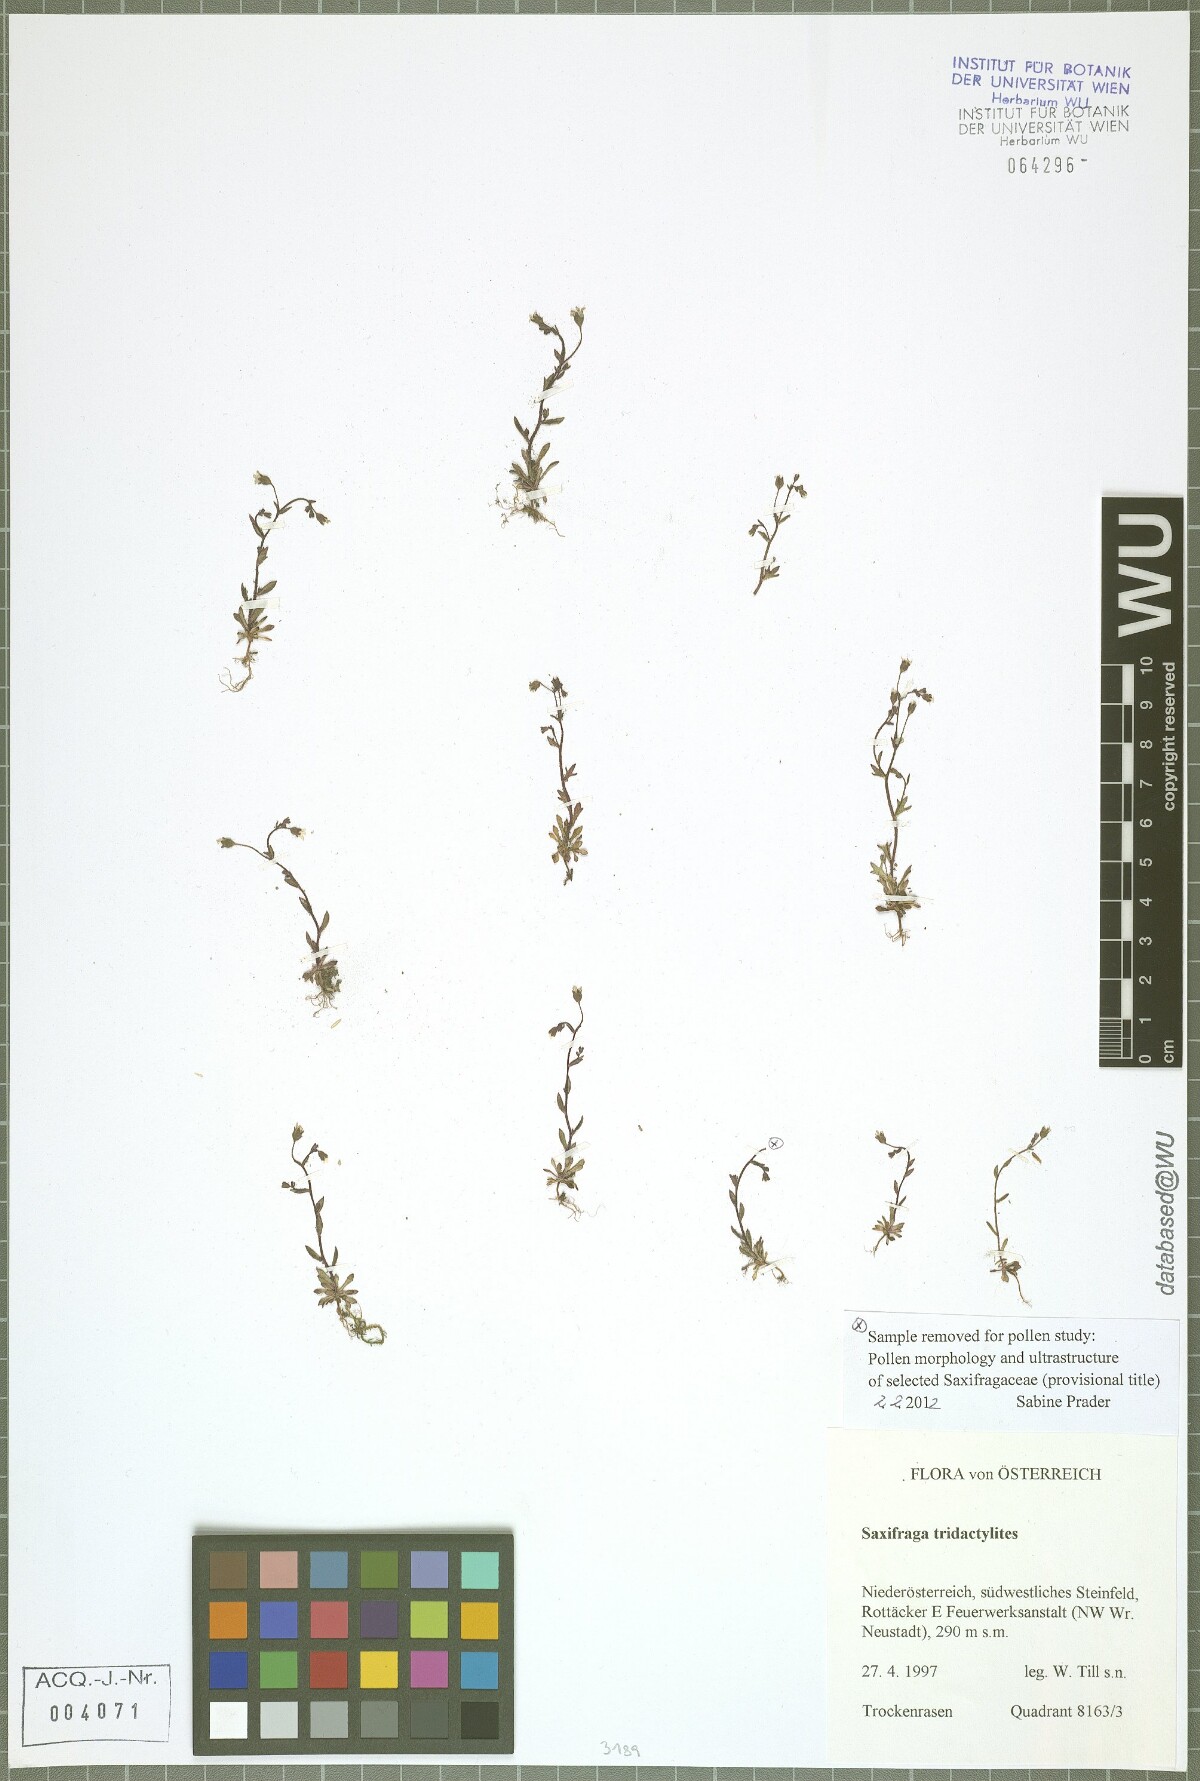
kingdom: Plantae
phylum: Tracheophyta
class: Magnoliopsida
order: Saxifragales
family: Saxifragaceae
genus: Saxifraga
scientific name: Saxifraga tridactylites
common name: Rue-leaved saxifrage
